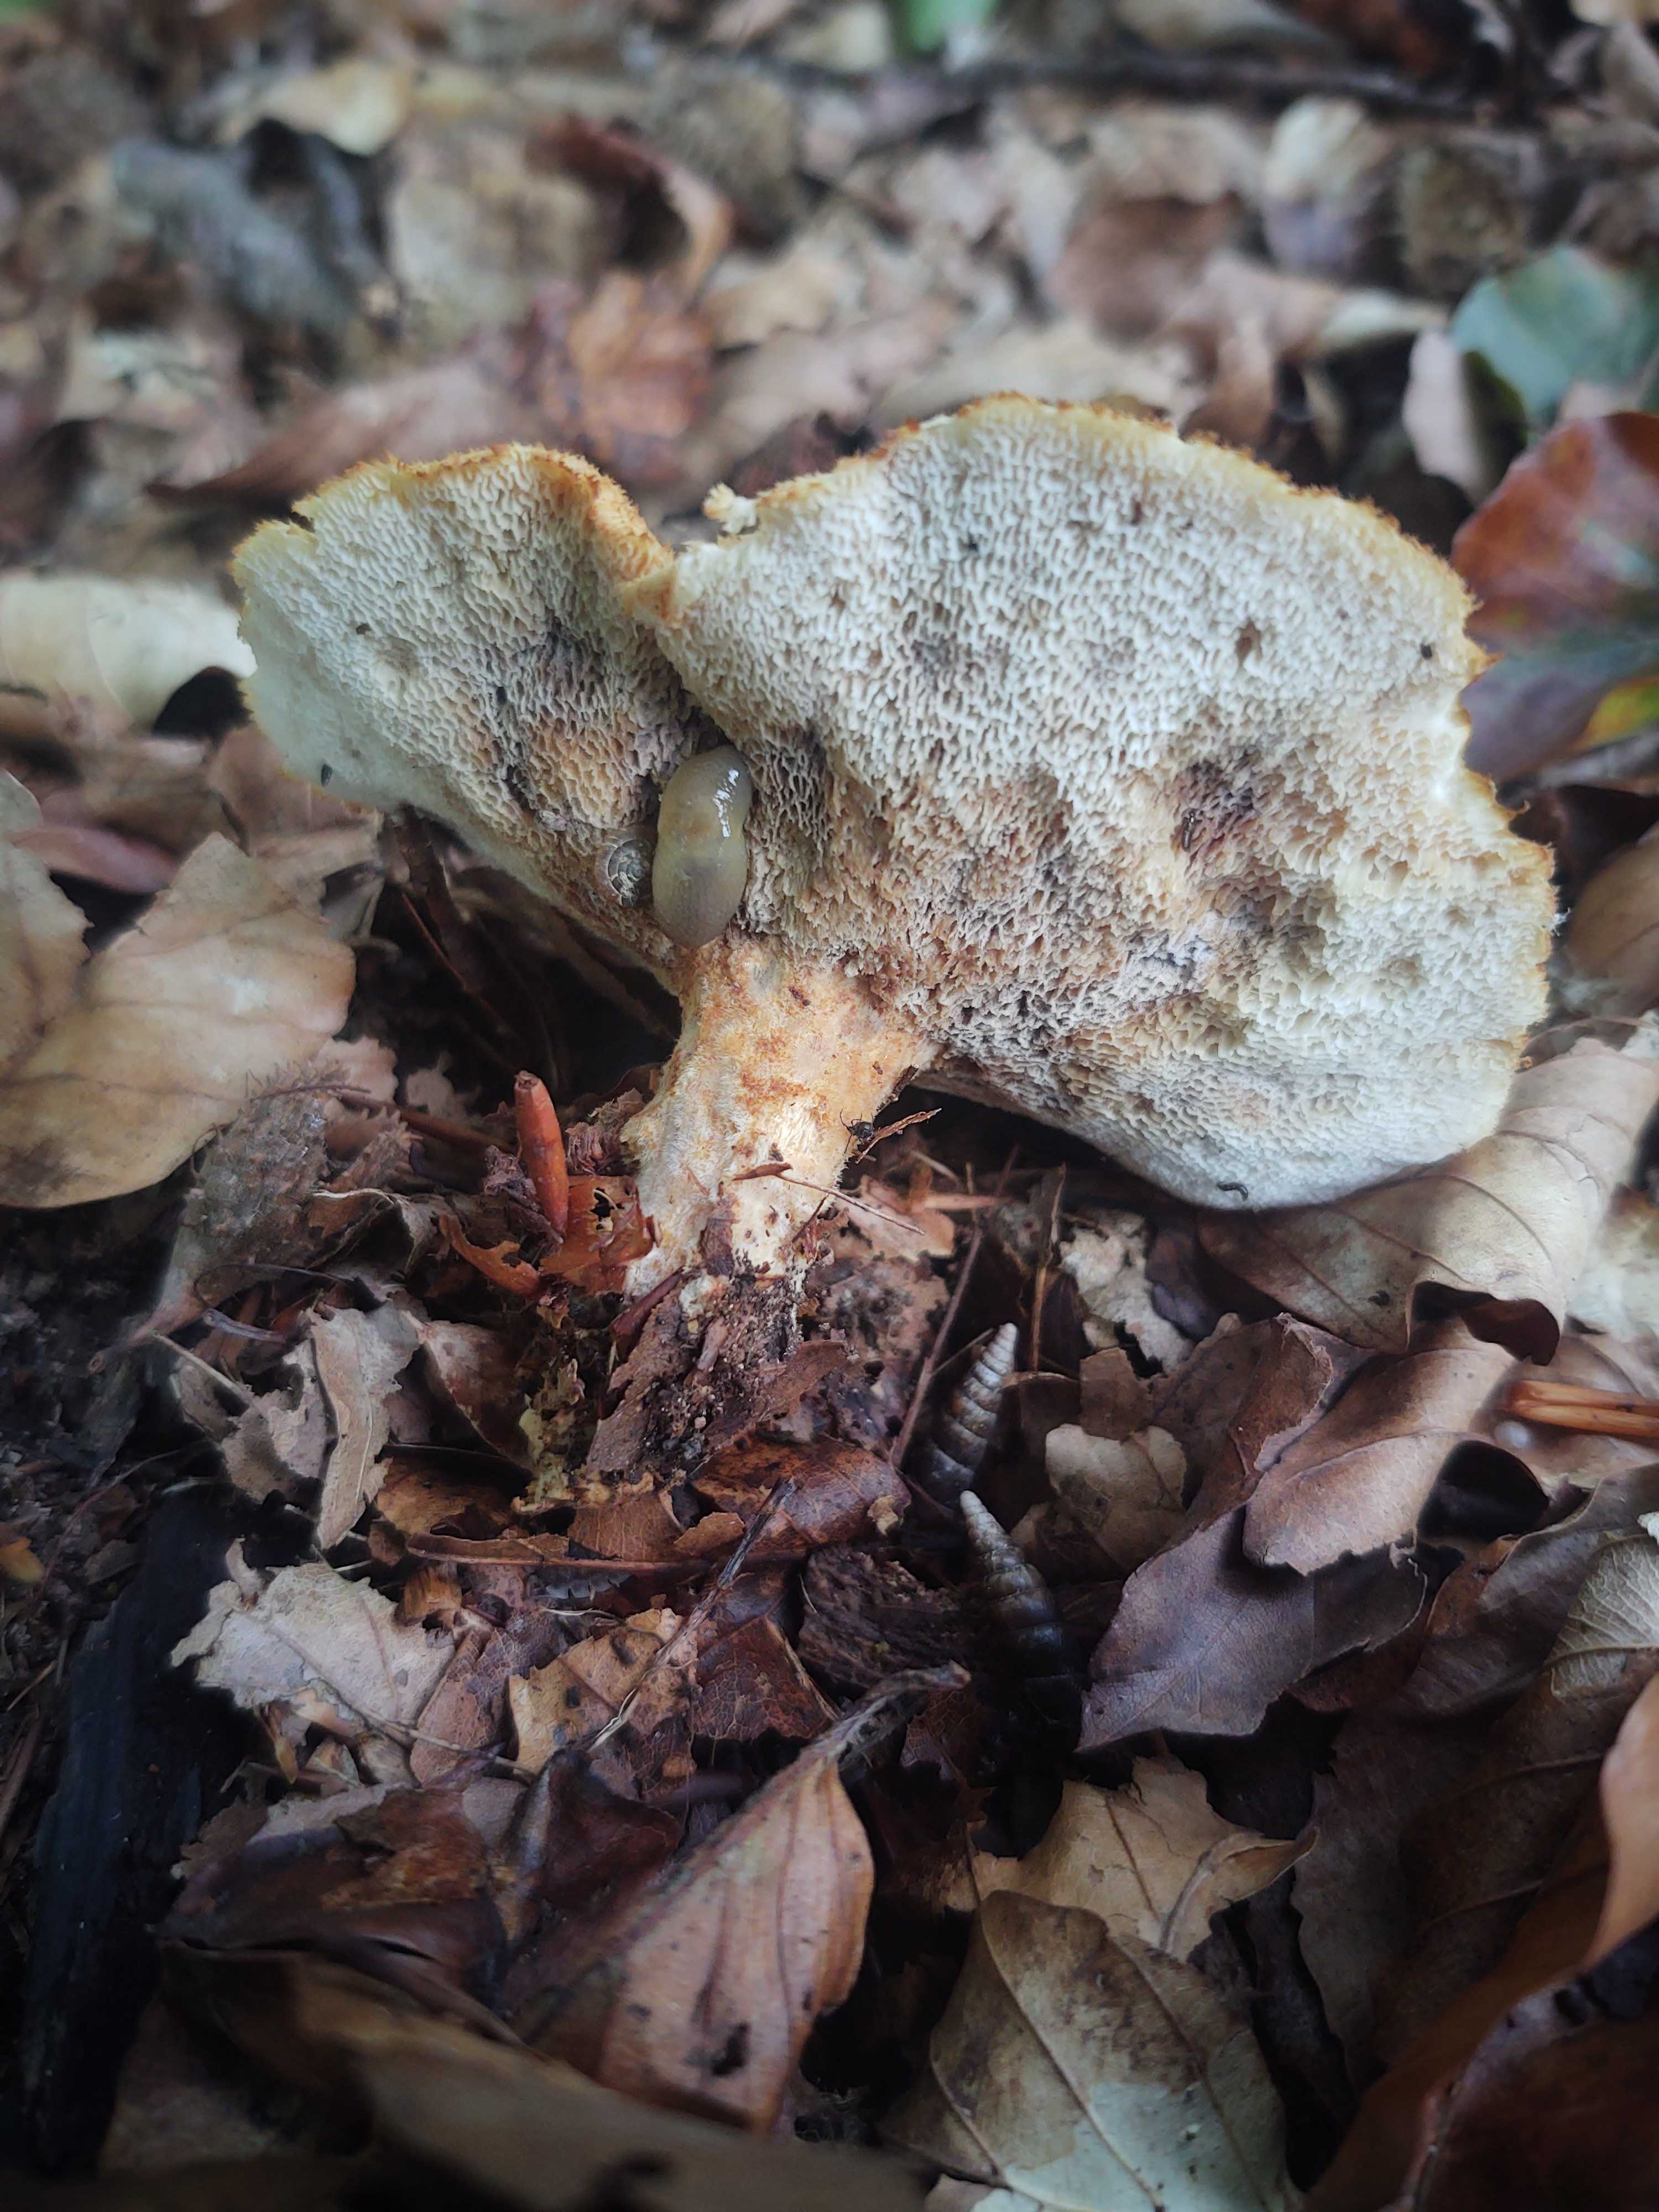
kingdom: Fungi
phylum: Basidiomycota
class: Agaricomycetes
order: Polyporales
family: Polyporaceae
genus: Polyporus
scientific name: Polyporus tuberaster
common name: knoldet stilkporesvamp
